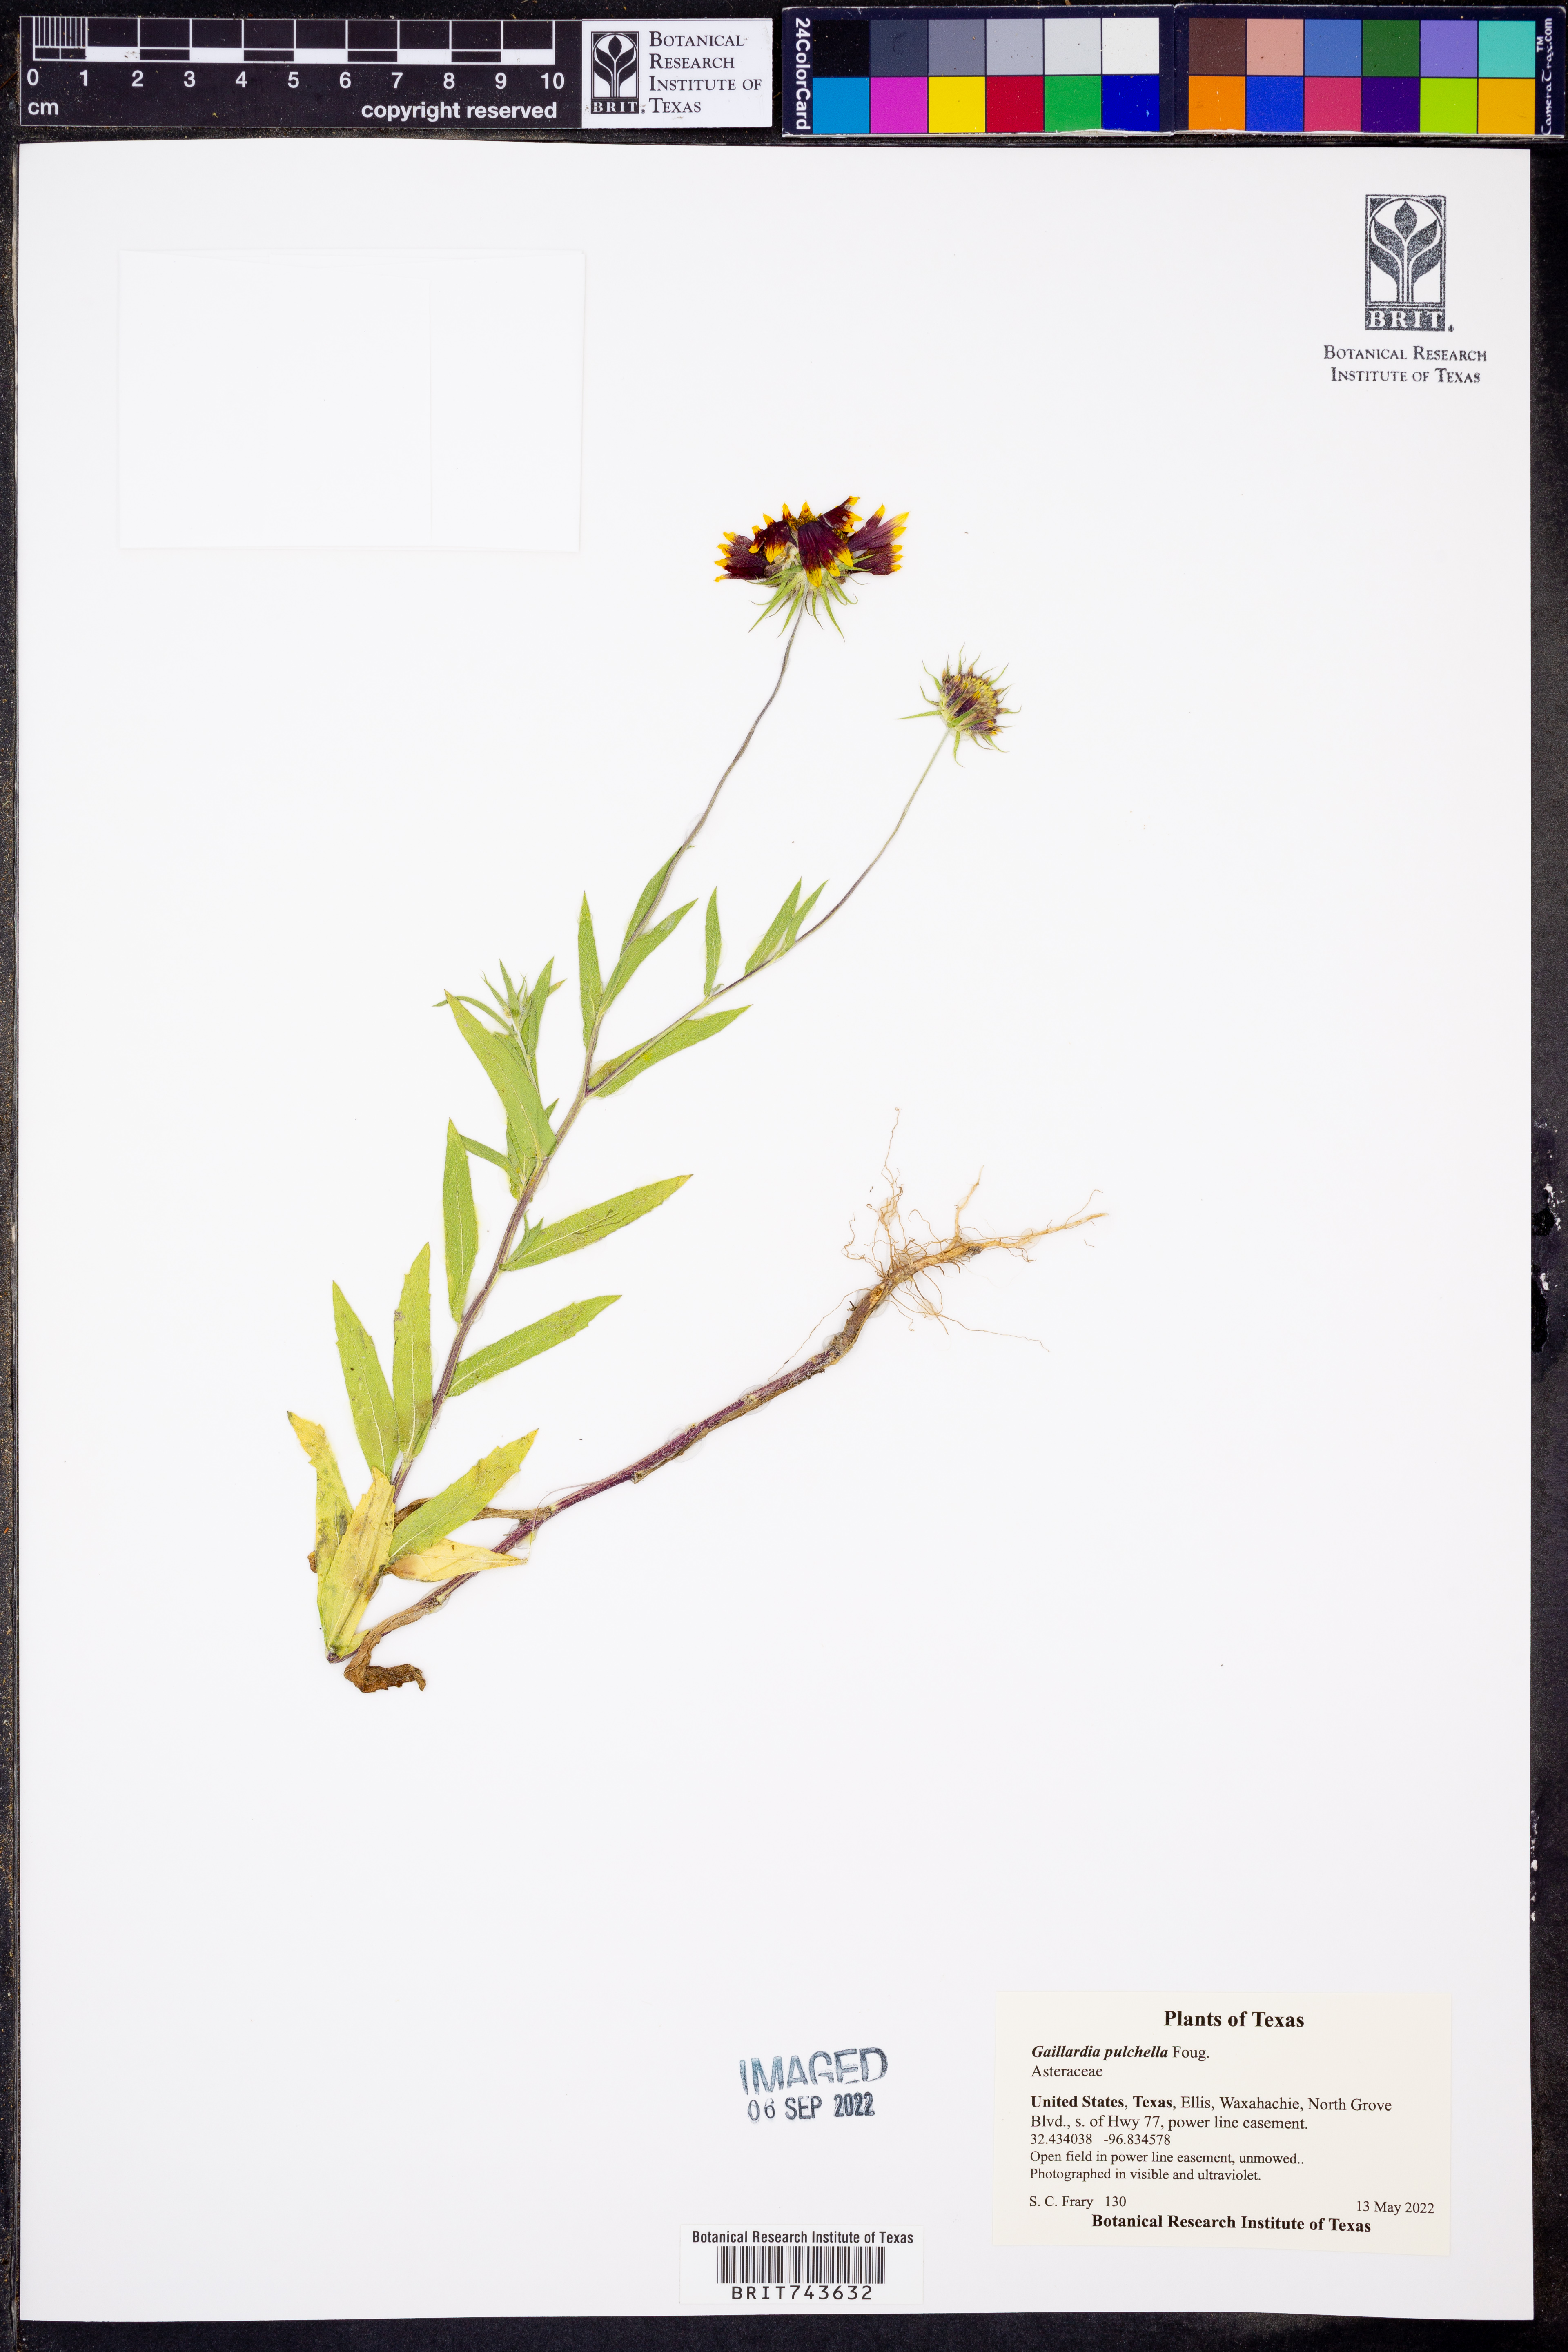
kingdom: Plantae
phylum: Tracheophyta
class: Magnoliopsida
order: Asterales
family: Asteraceae
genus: Gaillardia
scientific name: Gaillardia pulchella
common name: Firewheel
